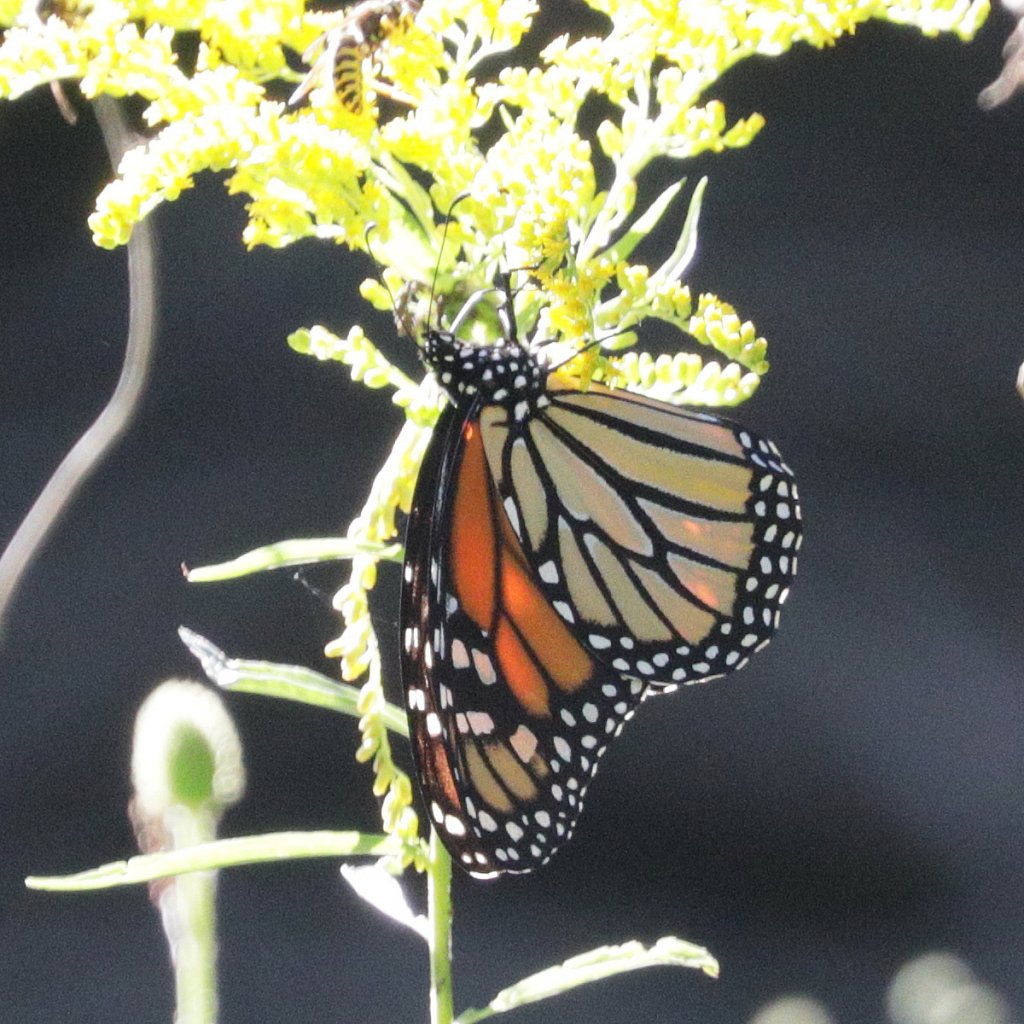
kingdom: Animalia
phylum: Arthropoda
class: Insecta
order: Lepidoptera
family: Nymphalidae
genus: Danaus
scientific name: Danaus plexippus
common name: Monarch
